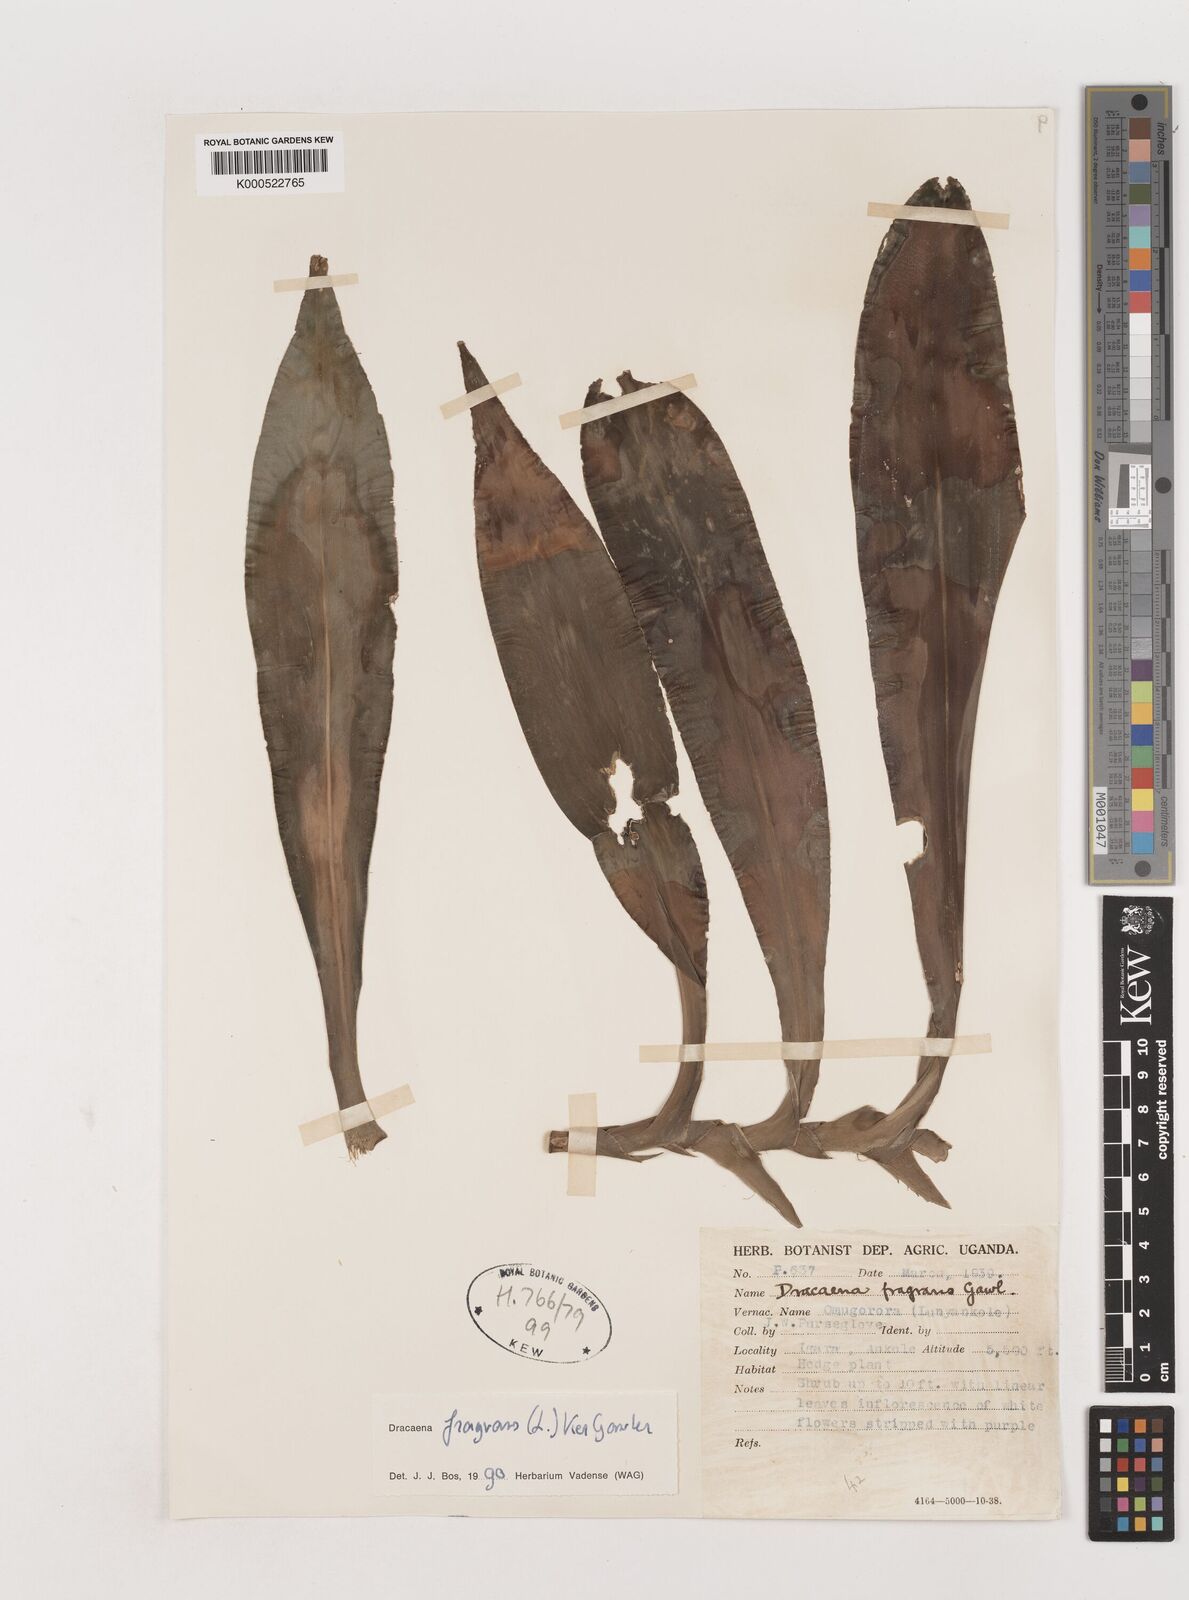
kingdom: Plantae
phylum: Tracheophyta
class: Liliopsida
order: Asparagales
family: Asparagaceae
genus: Dracaena
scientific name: Dracaena fragrans
